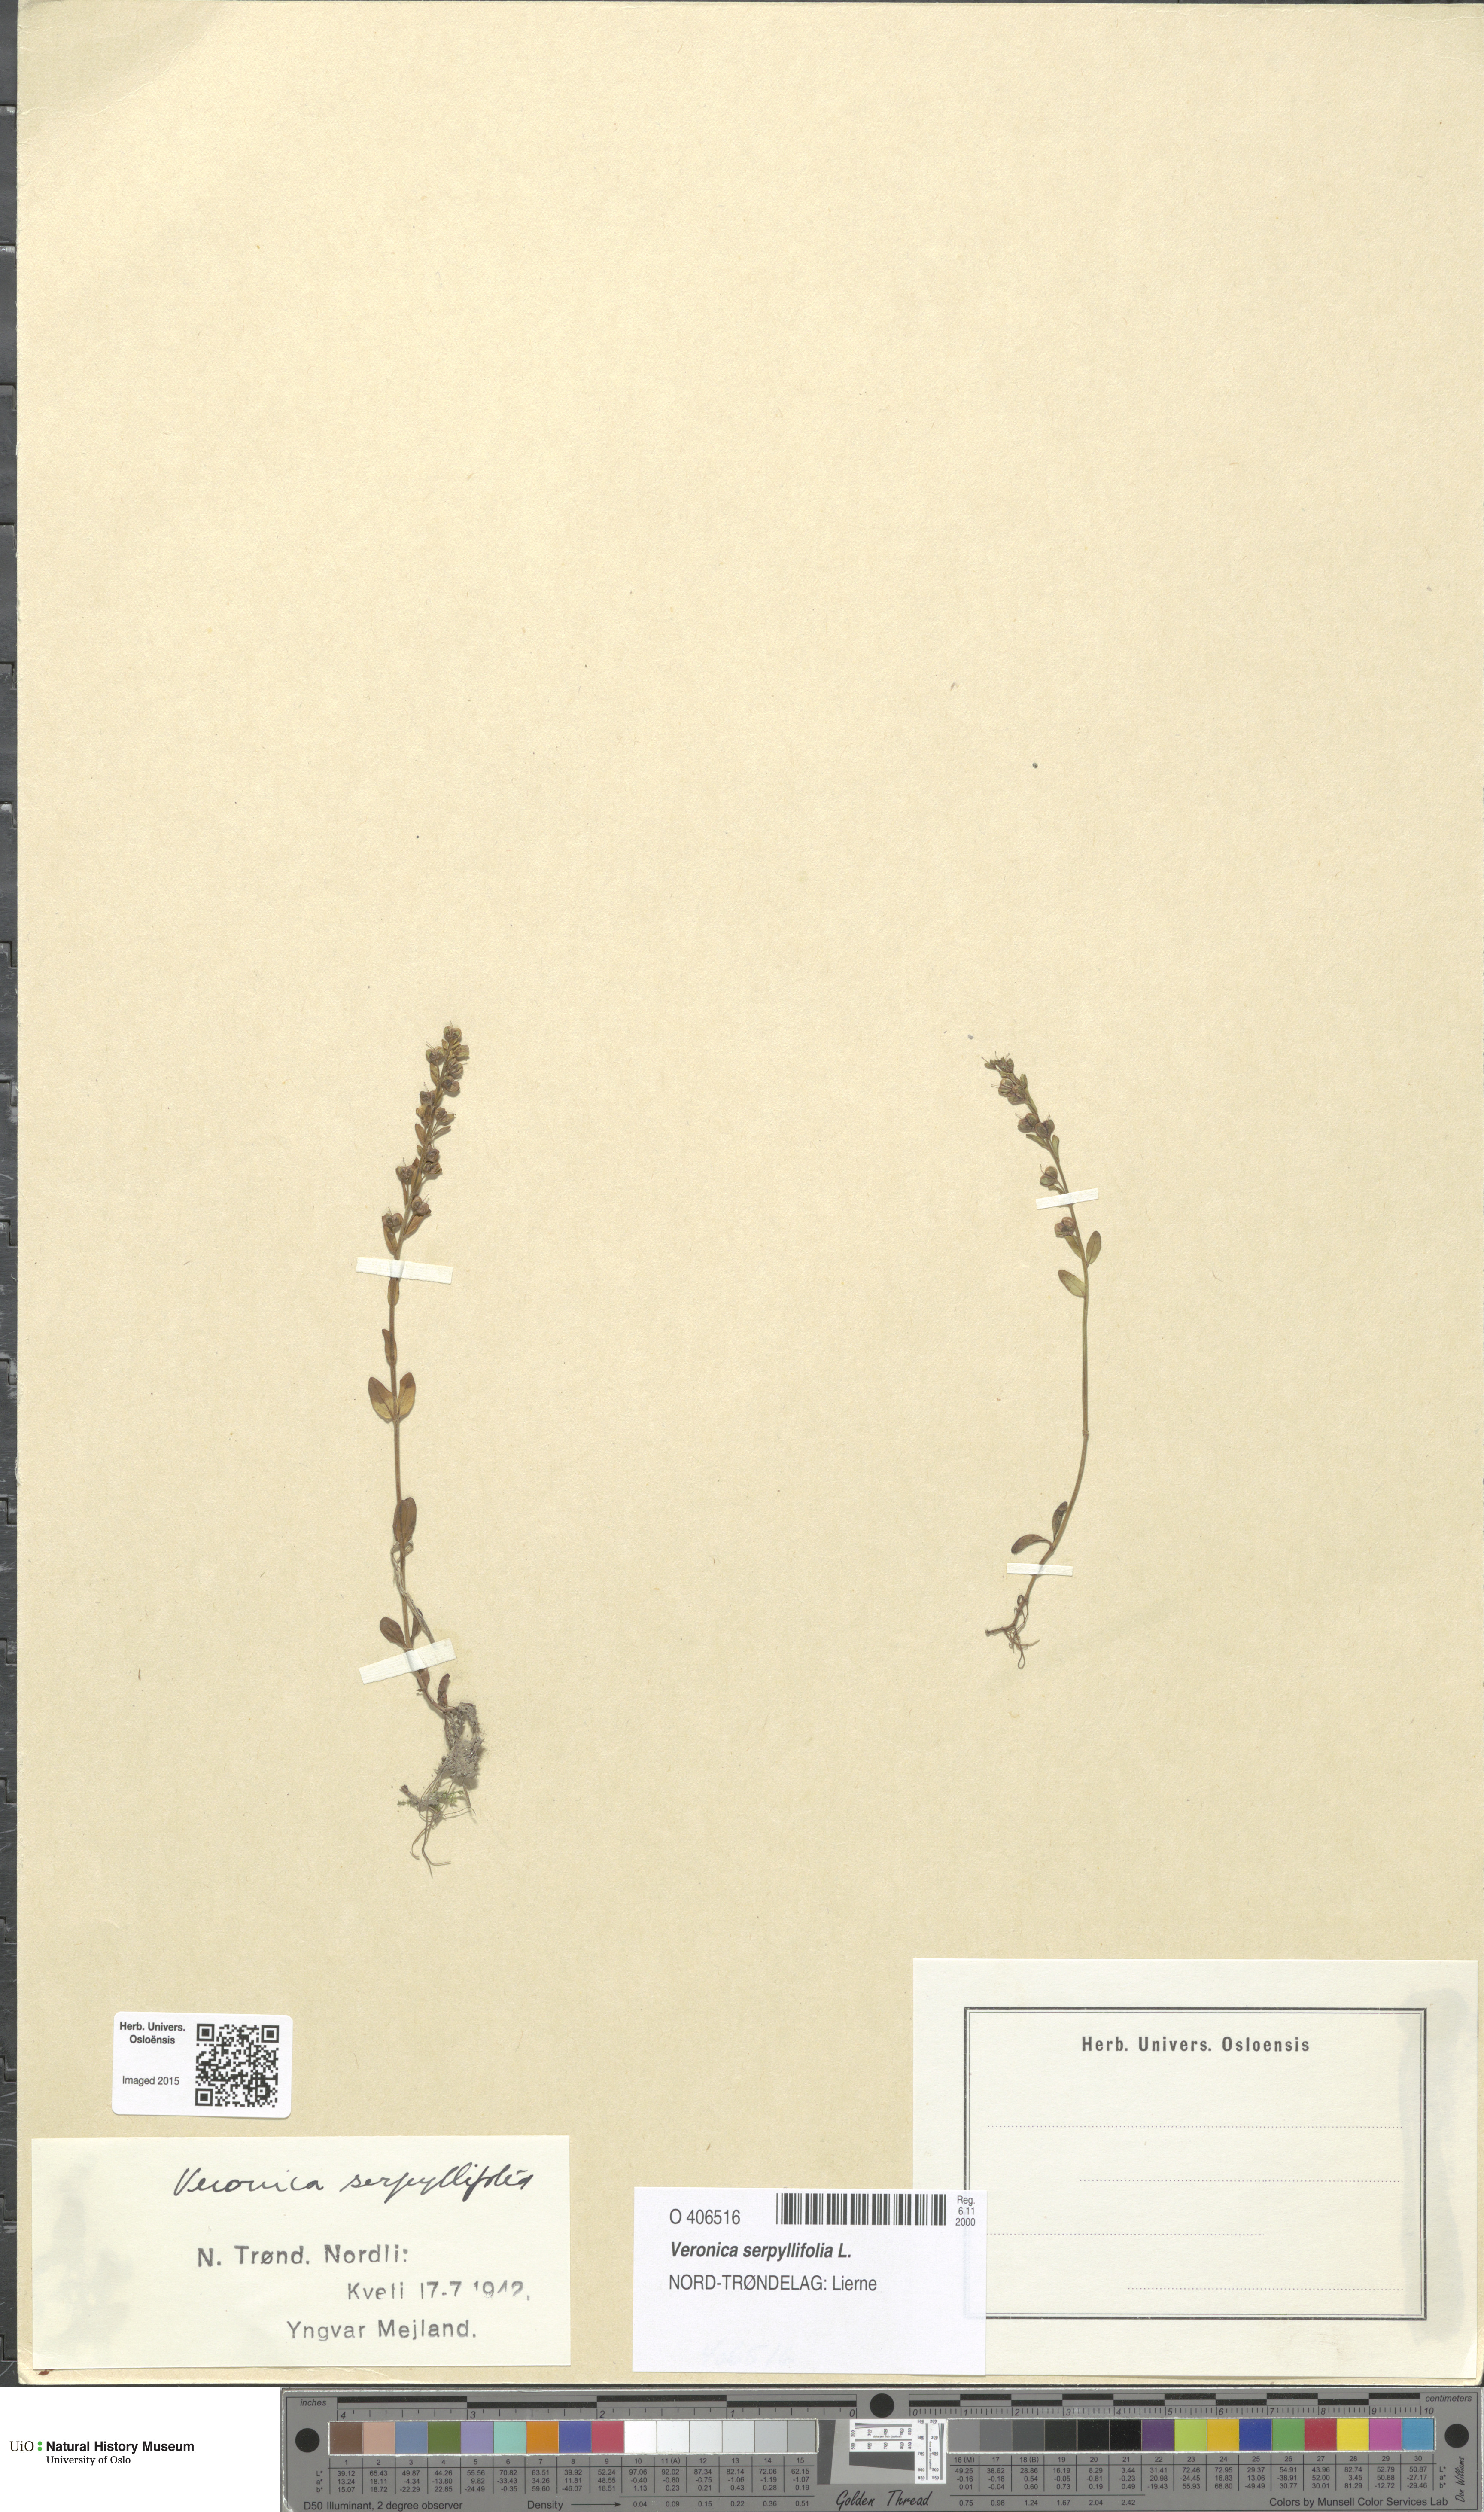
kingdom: Plantae
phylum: Tracheophyta
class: Magnoliopsida
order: Lamiales
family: Plantaginaceae
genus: Veronica
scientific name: Veronica serpyllifolia
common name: Thyme-leaved speedwell
